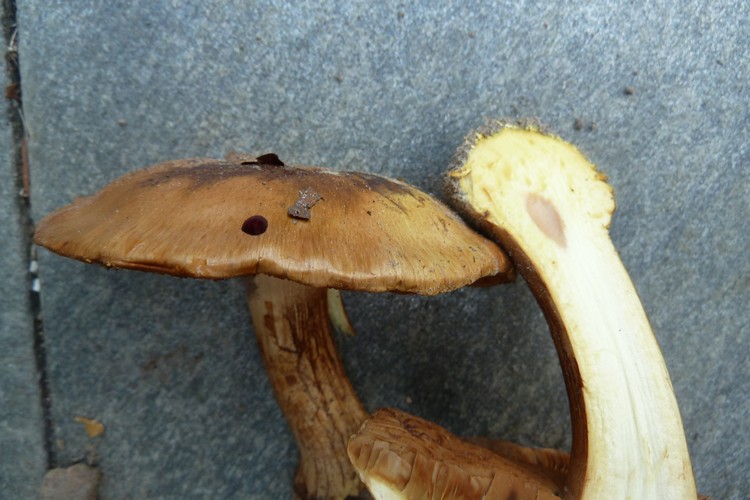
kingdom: Fungi
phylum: Basidiomycota
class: Agaricomycetes
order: Agaricales
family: Cortinariaceae
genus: Calonarius
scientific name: Calonarius alcalinophilus
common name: gyldenbrun slørhat
